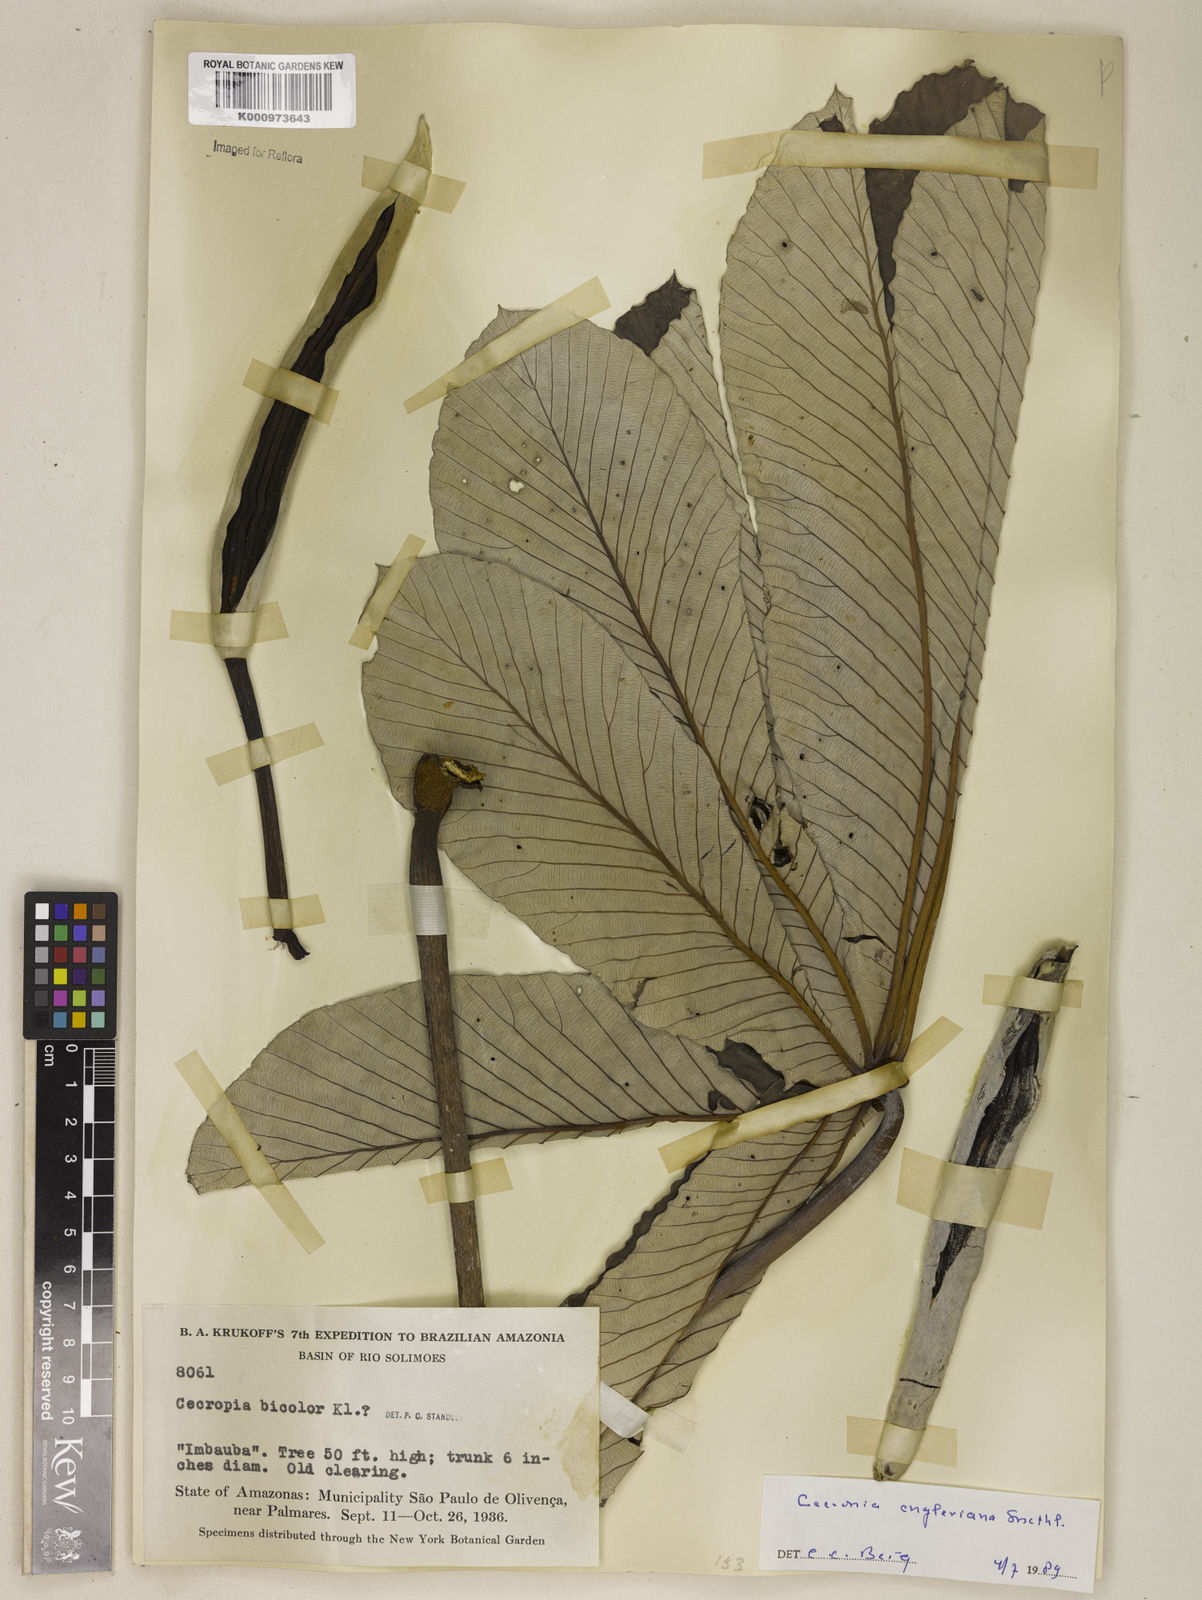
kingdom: Plantae
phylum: Tracheophyta
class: Magnoliopsida
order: Rosales
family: Urticaceae
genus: Cecropia
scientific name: Cecropia engleriana
